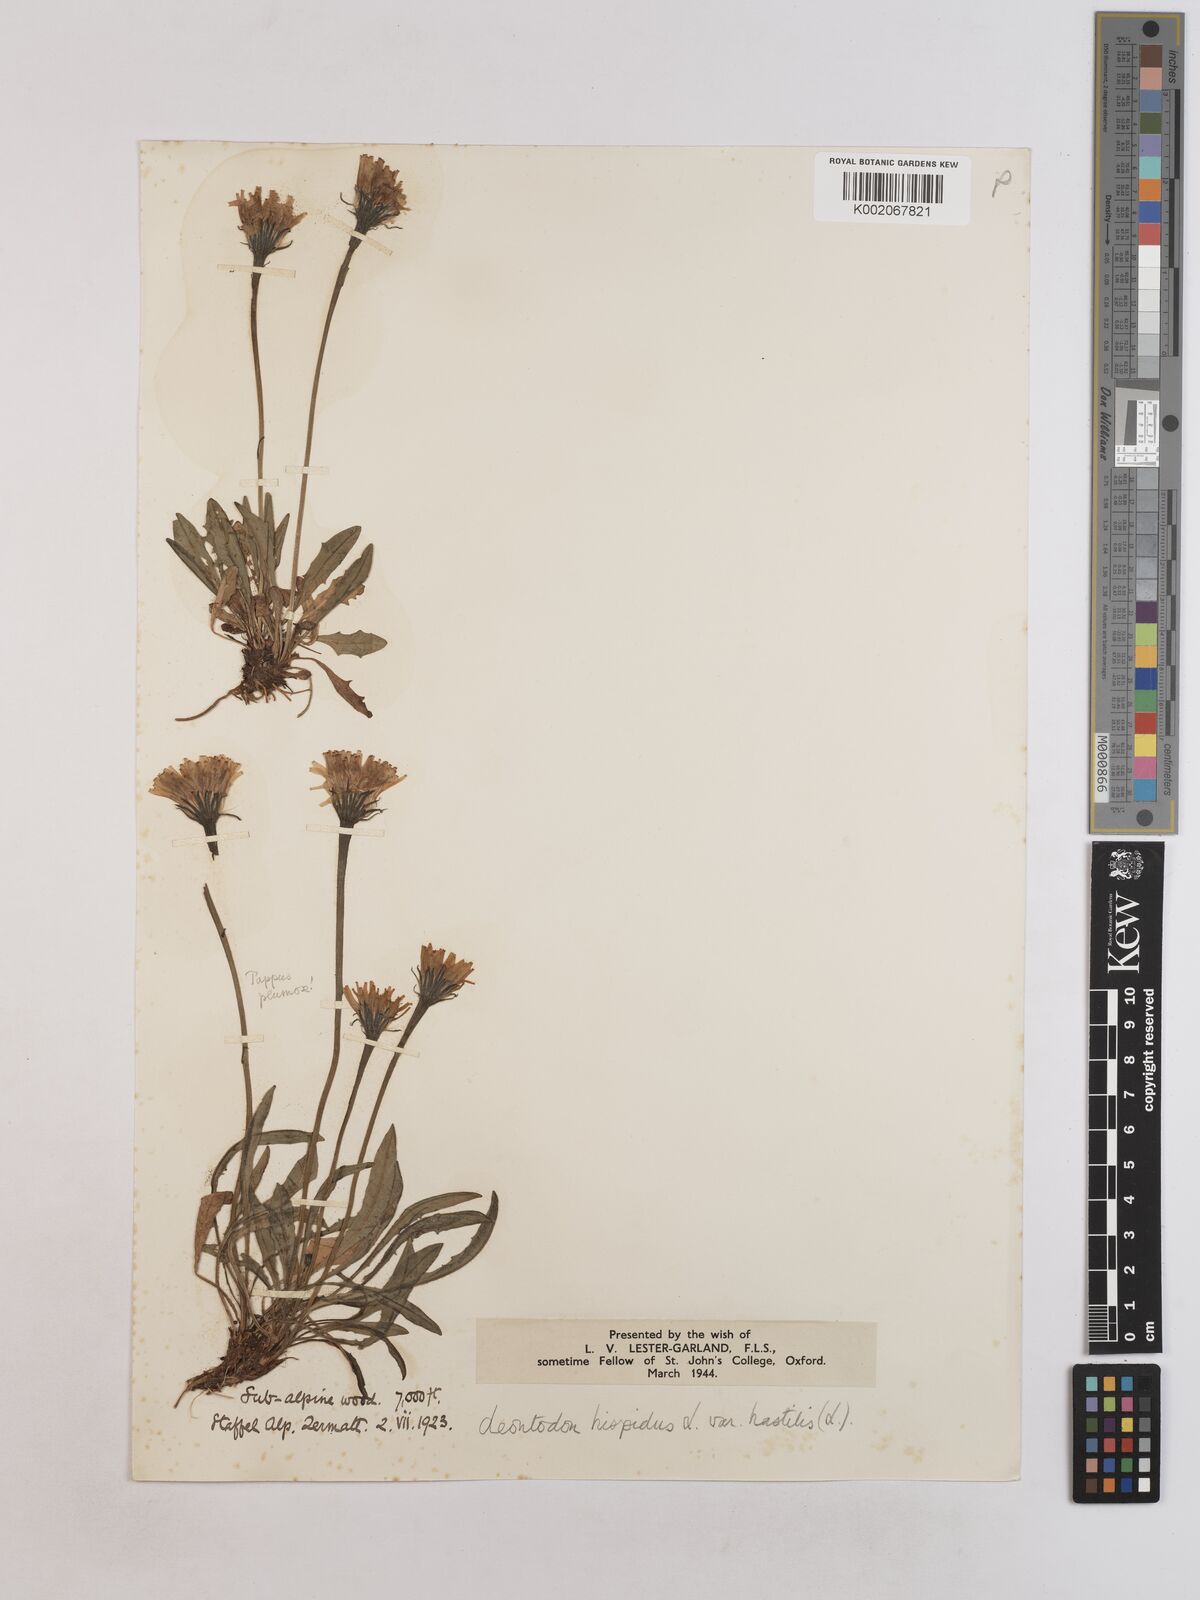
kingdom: Plantae
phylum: Tracheophyta
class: Magnoliopsida
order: Asterales
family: Asteraceae
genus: Leontodon
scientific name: Leontodon hispidus
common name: Rough hawkbit
